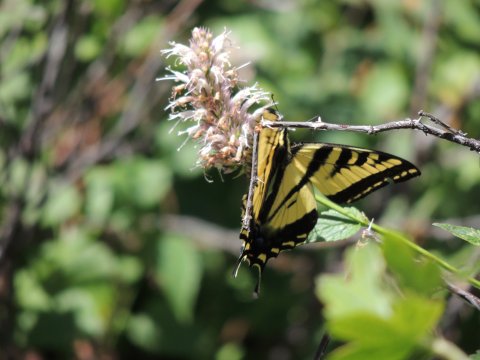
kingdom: Animalia
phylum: Arthropoda
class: Insecta
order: Lepidoptera
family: Papilionidae
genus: Pterourus
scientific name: Pterourus rutulus
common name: Western Tiger Swallowtail
